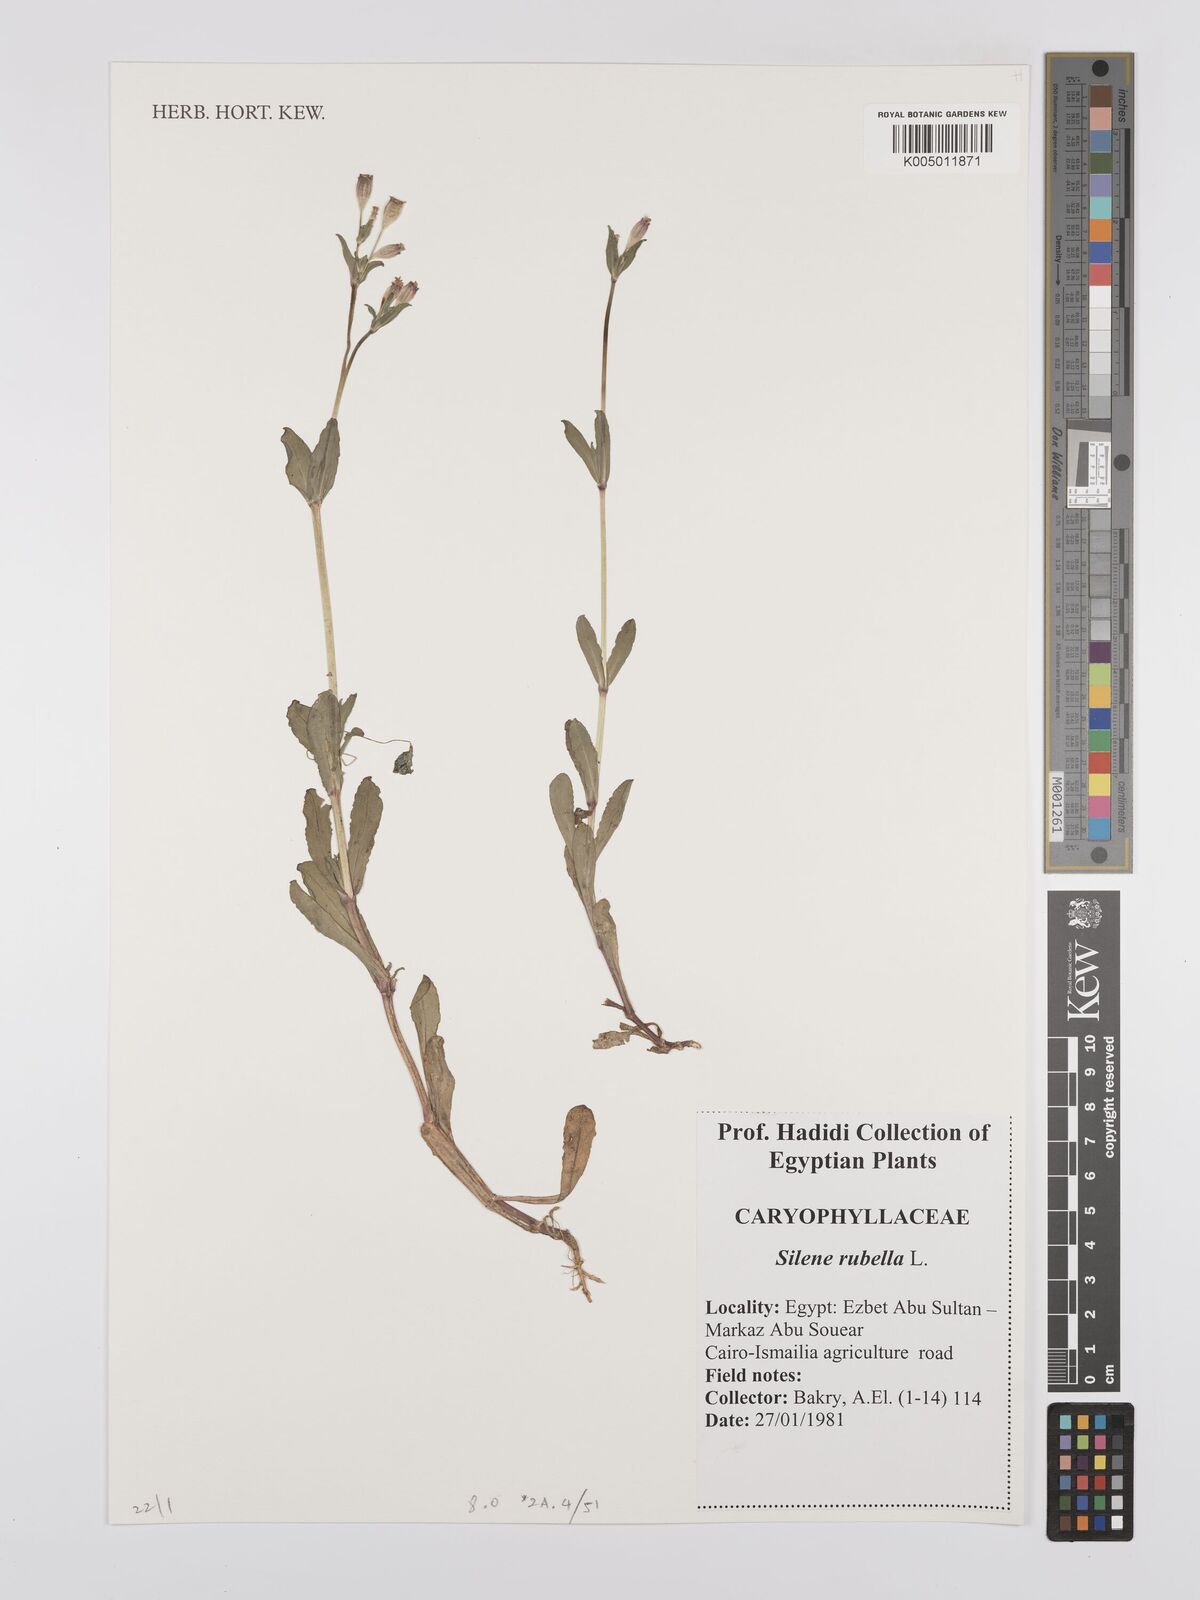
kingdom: Plantae
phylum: Tracheophyta
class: Magnoliopsida
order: Caryophyllales
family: Caryophyllaceae
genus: Silene
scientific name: Silene rubella
